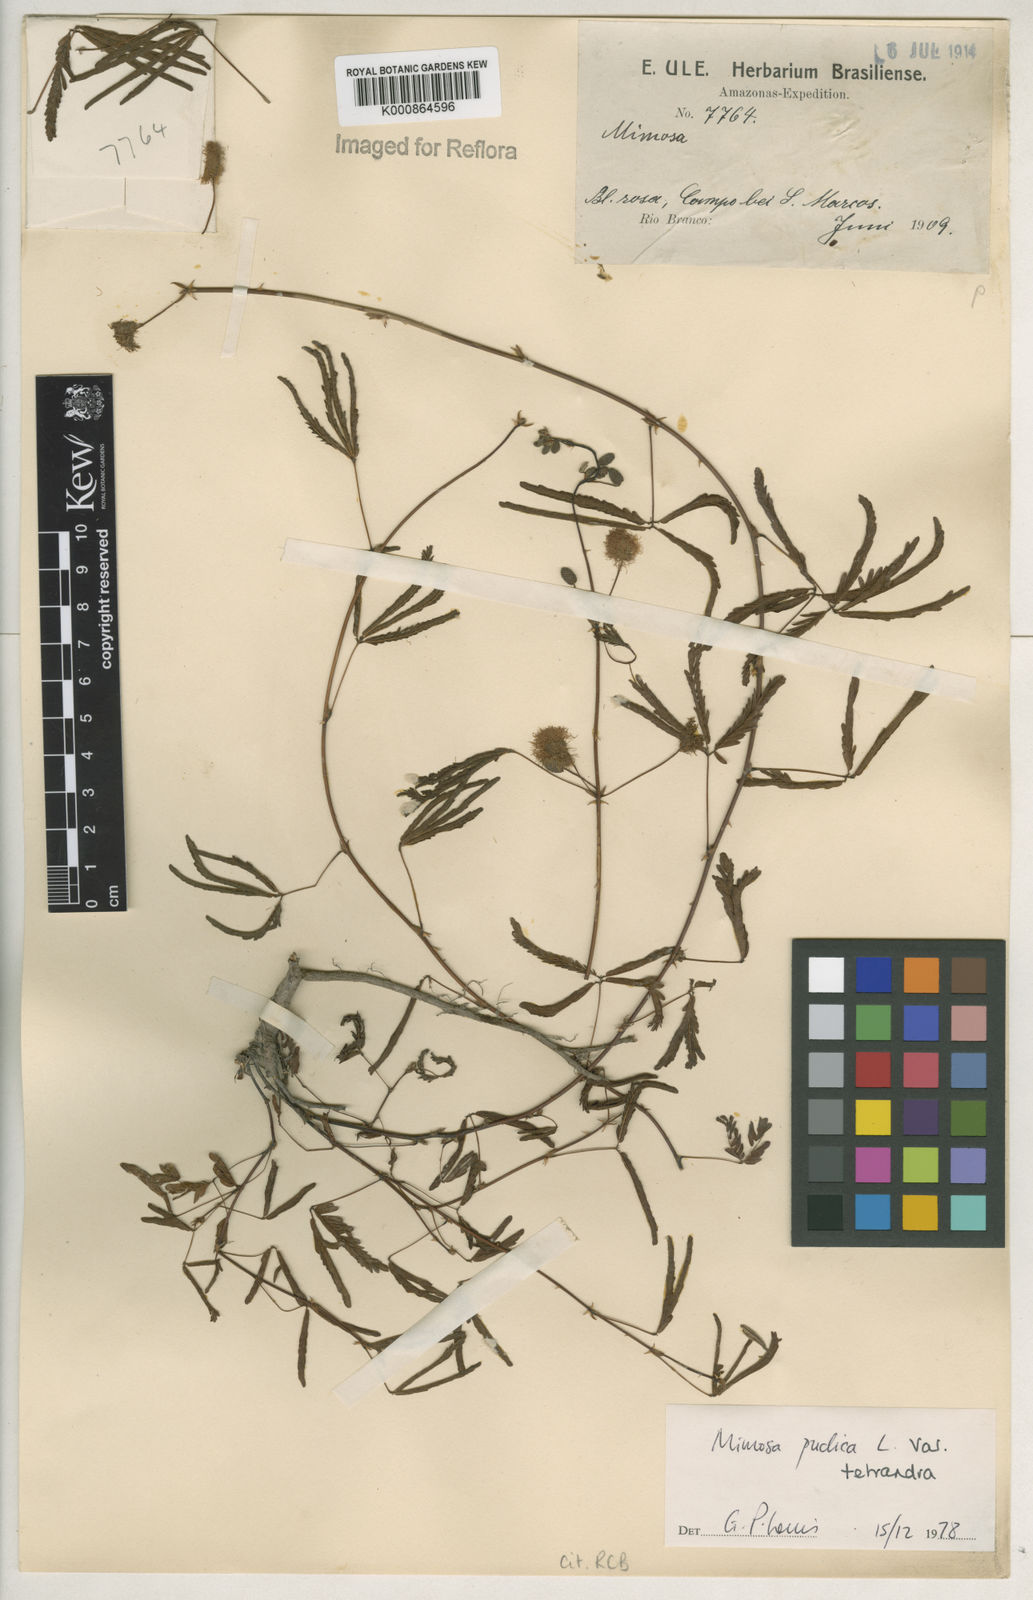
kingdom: Plantae
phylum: Tracheophyta
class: Magnoliopsida
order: Fabales
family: Fabaceae
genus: Mimosa
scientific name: Mimosa pudica
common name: Sensitive plant
